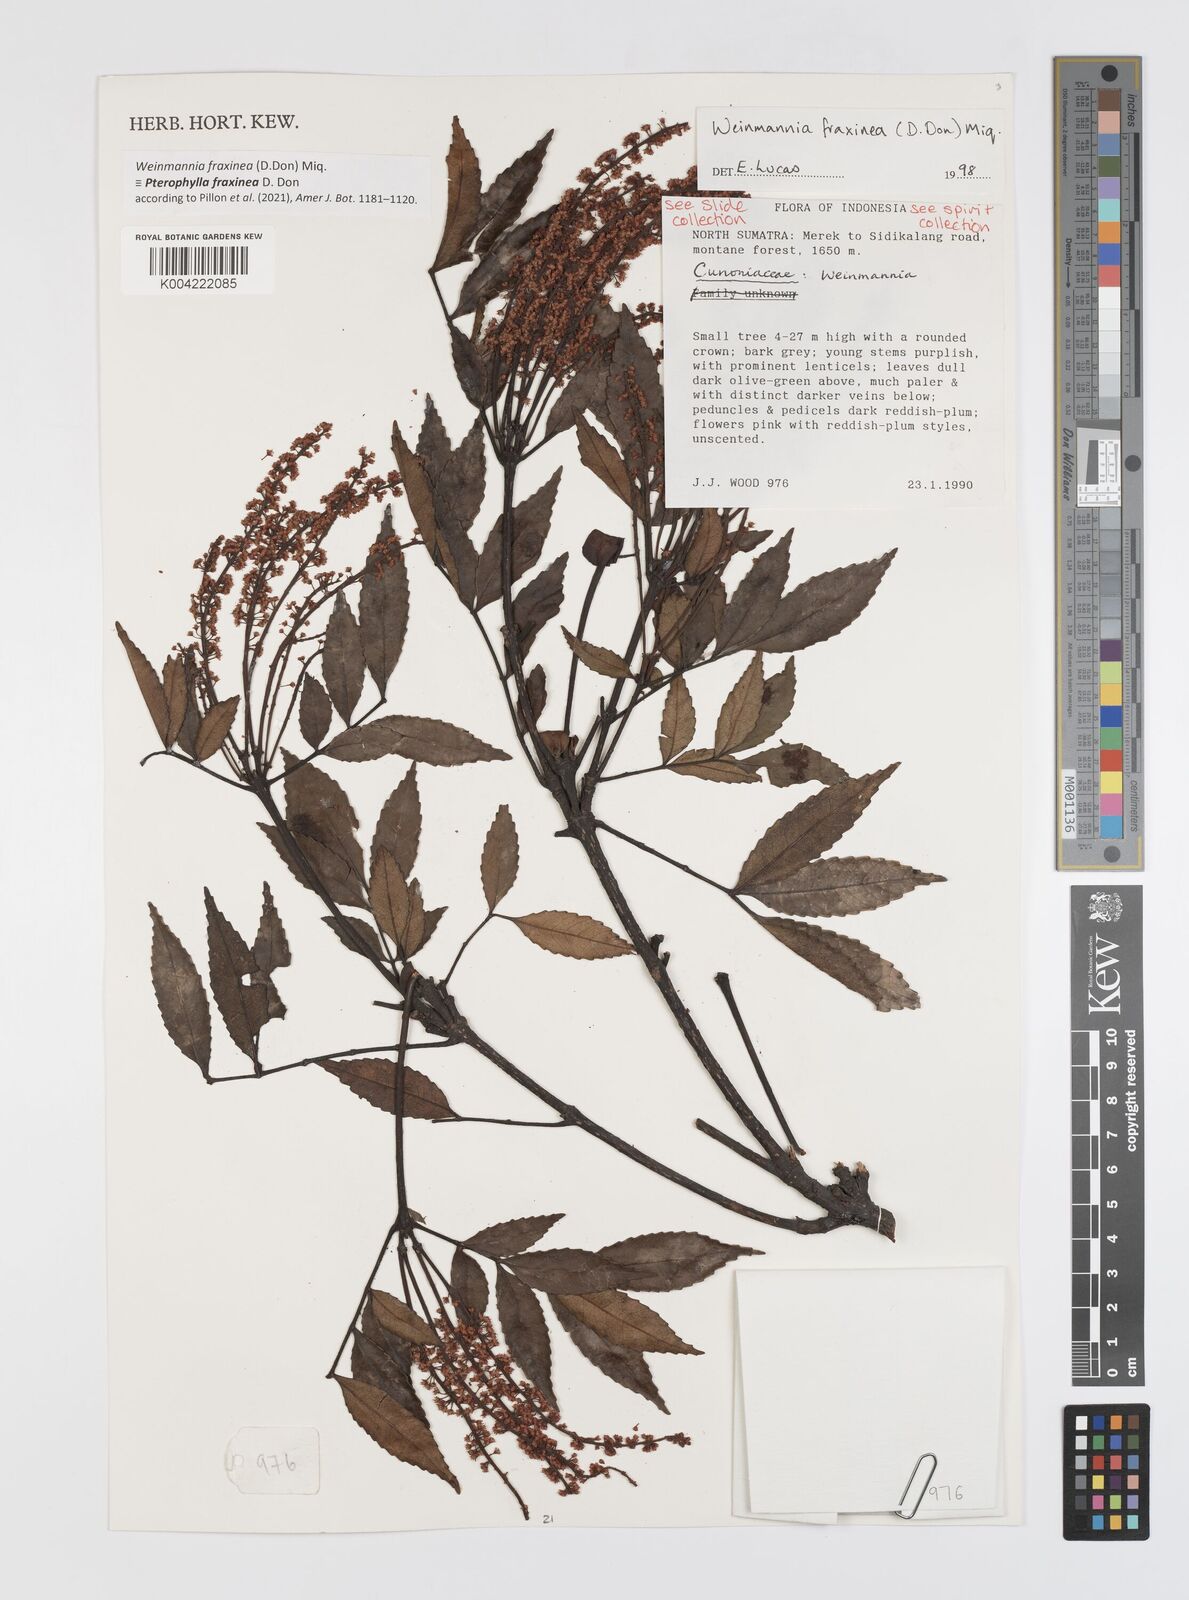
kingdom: Plantae
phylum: Tracheophyta
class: Magnoliopsida
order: Oxalidales
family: Cunoniaceae
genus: Pterophylla
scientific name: Pterophylla fraxinea
